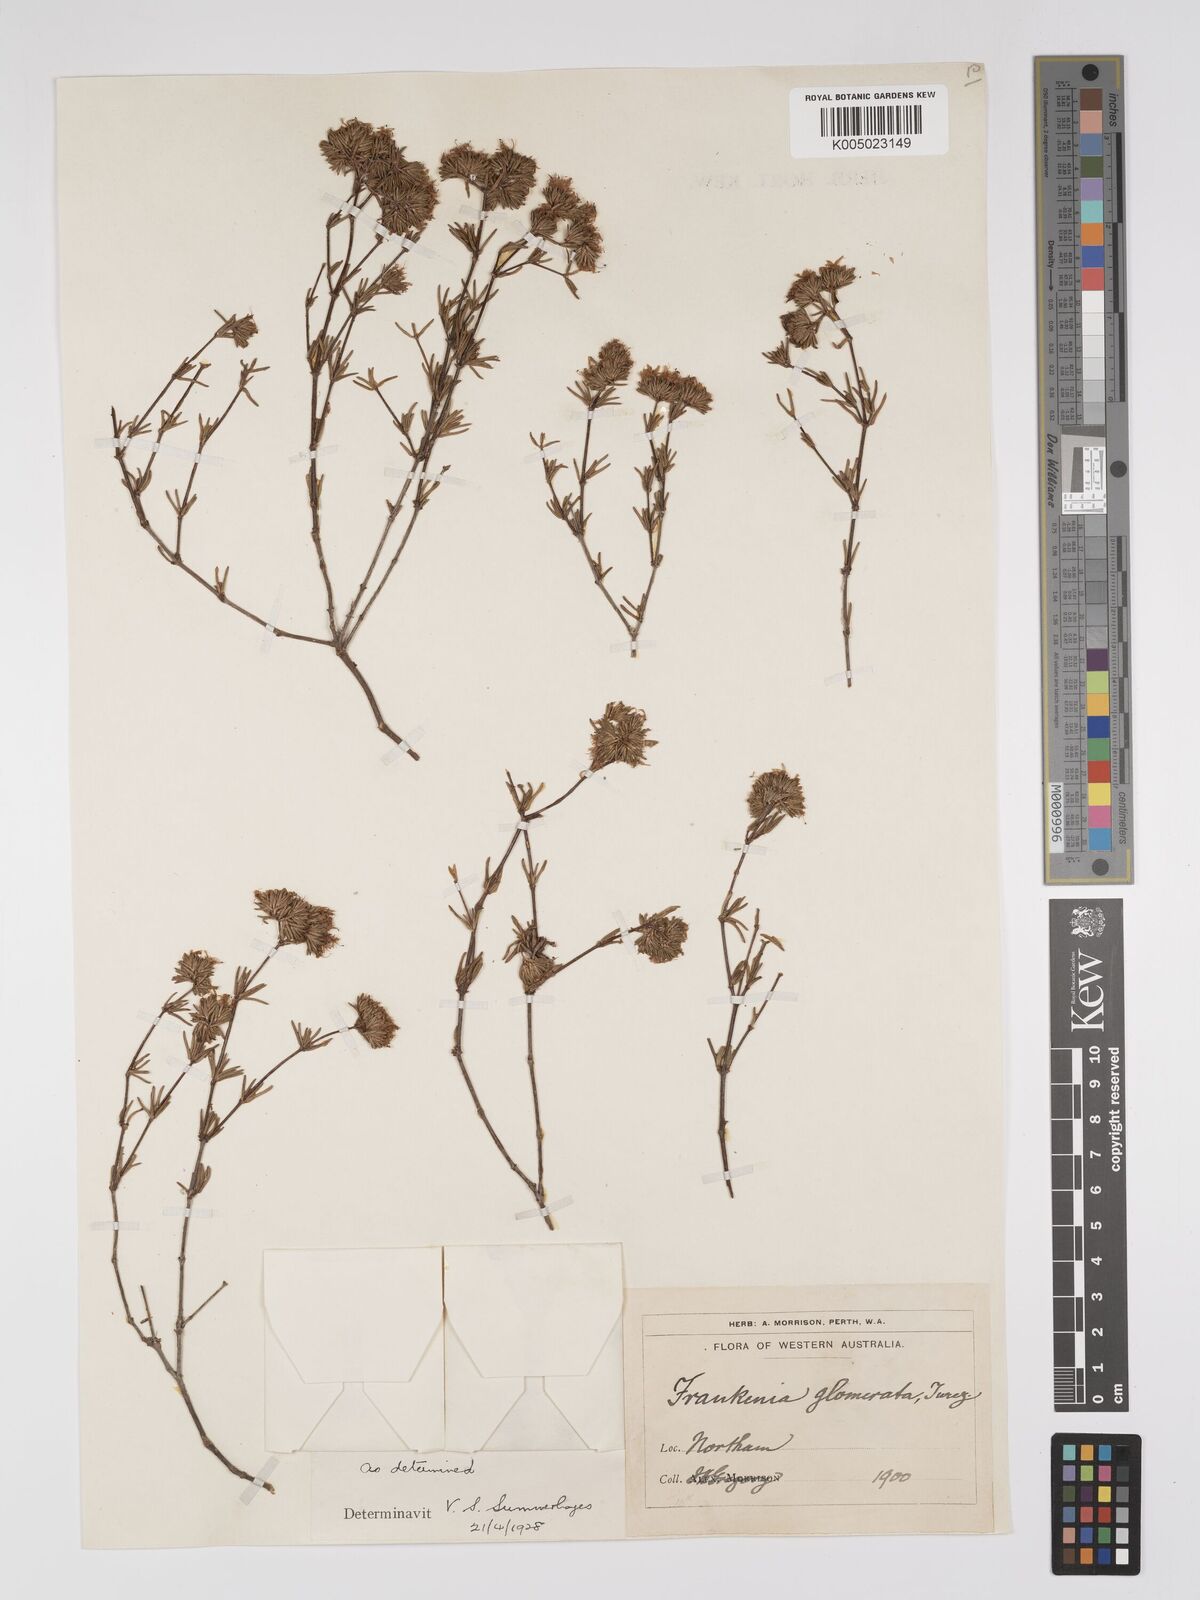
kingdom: Plantae
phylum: Tracheophyta
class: Magnoliopsida
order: Caryophyllales
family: Frankeniaceae
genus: Frankenia
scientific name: Frankenia glomerata
